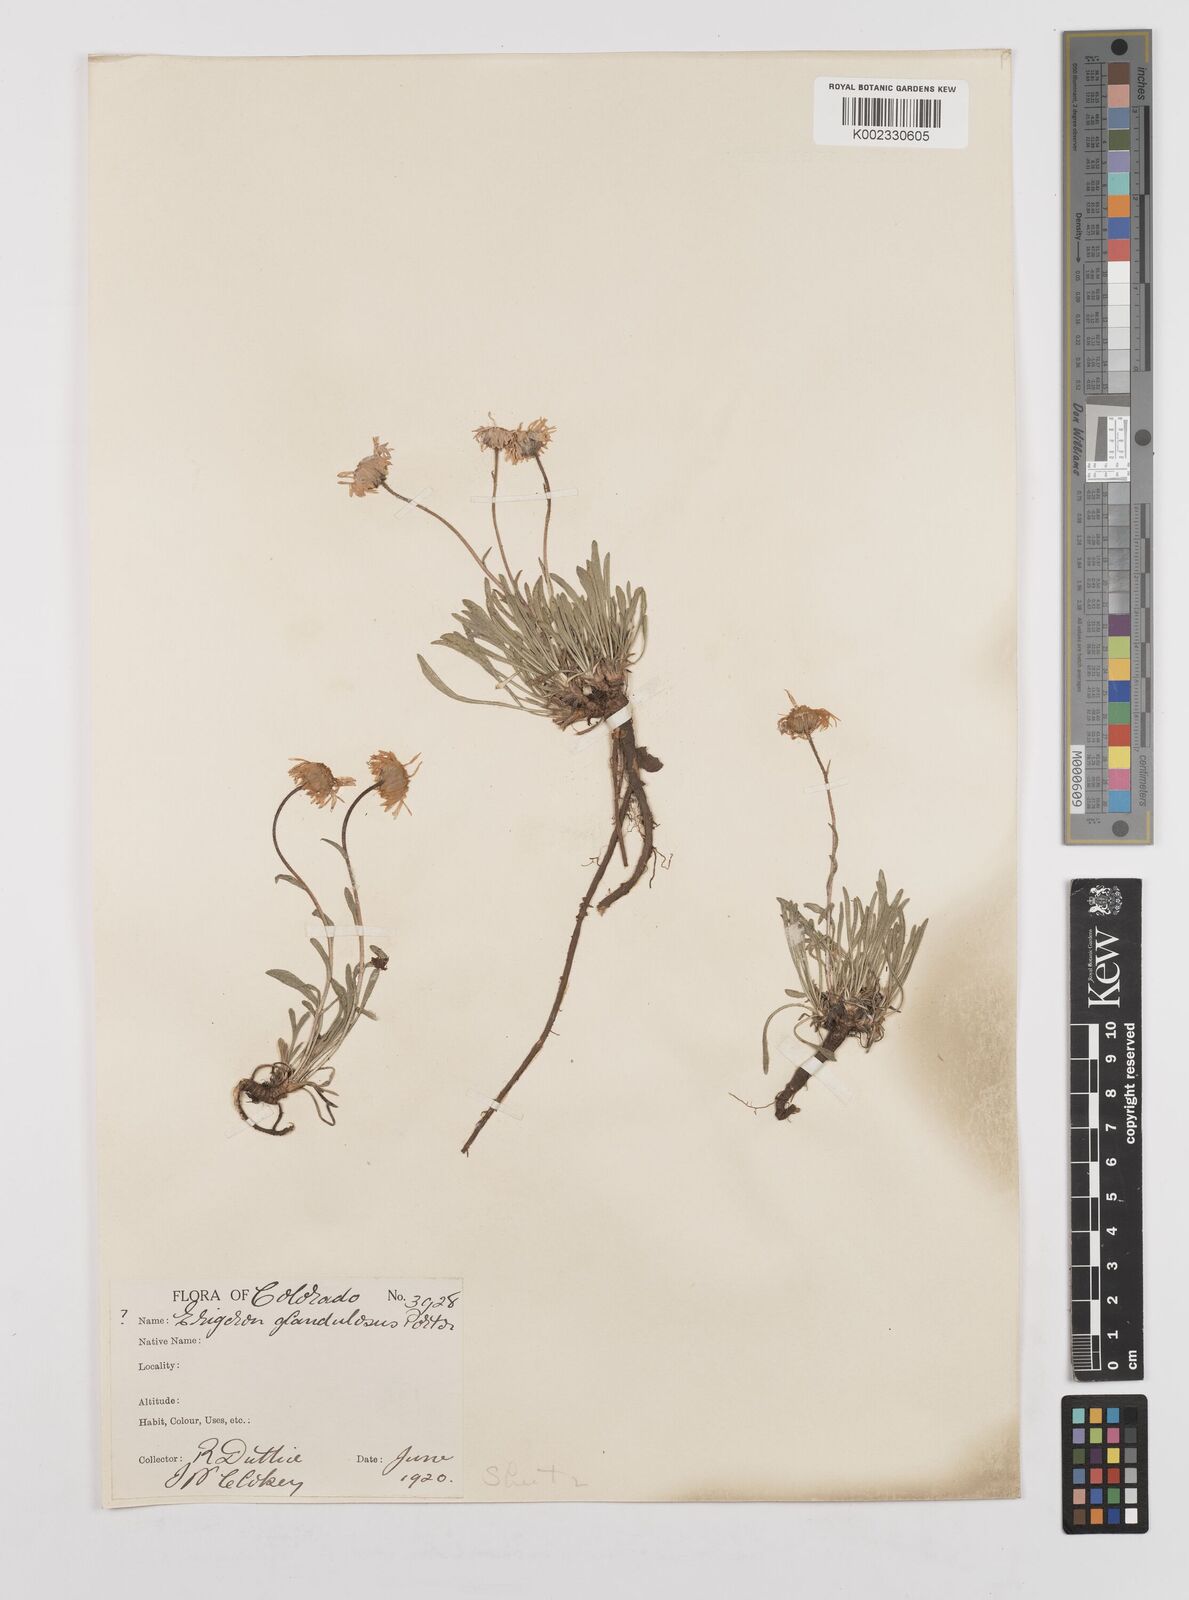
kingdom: Plantae
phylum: Tracheophyta
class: Magnoliopsida
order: Asterales
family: Asteraceae
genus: Erigeron
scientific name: Erigeron vetensis
